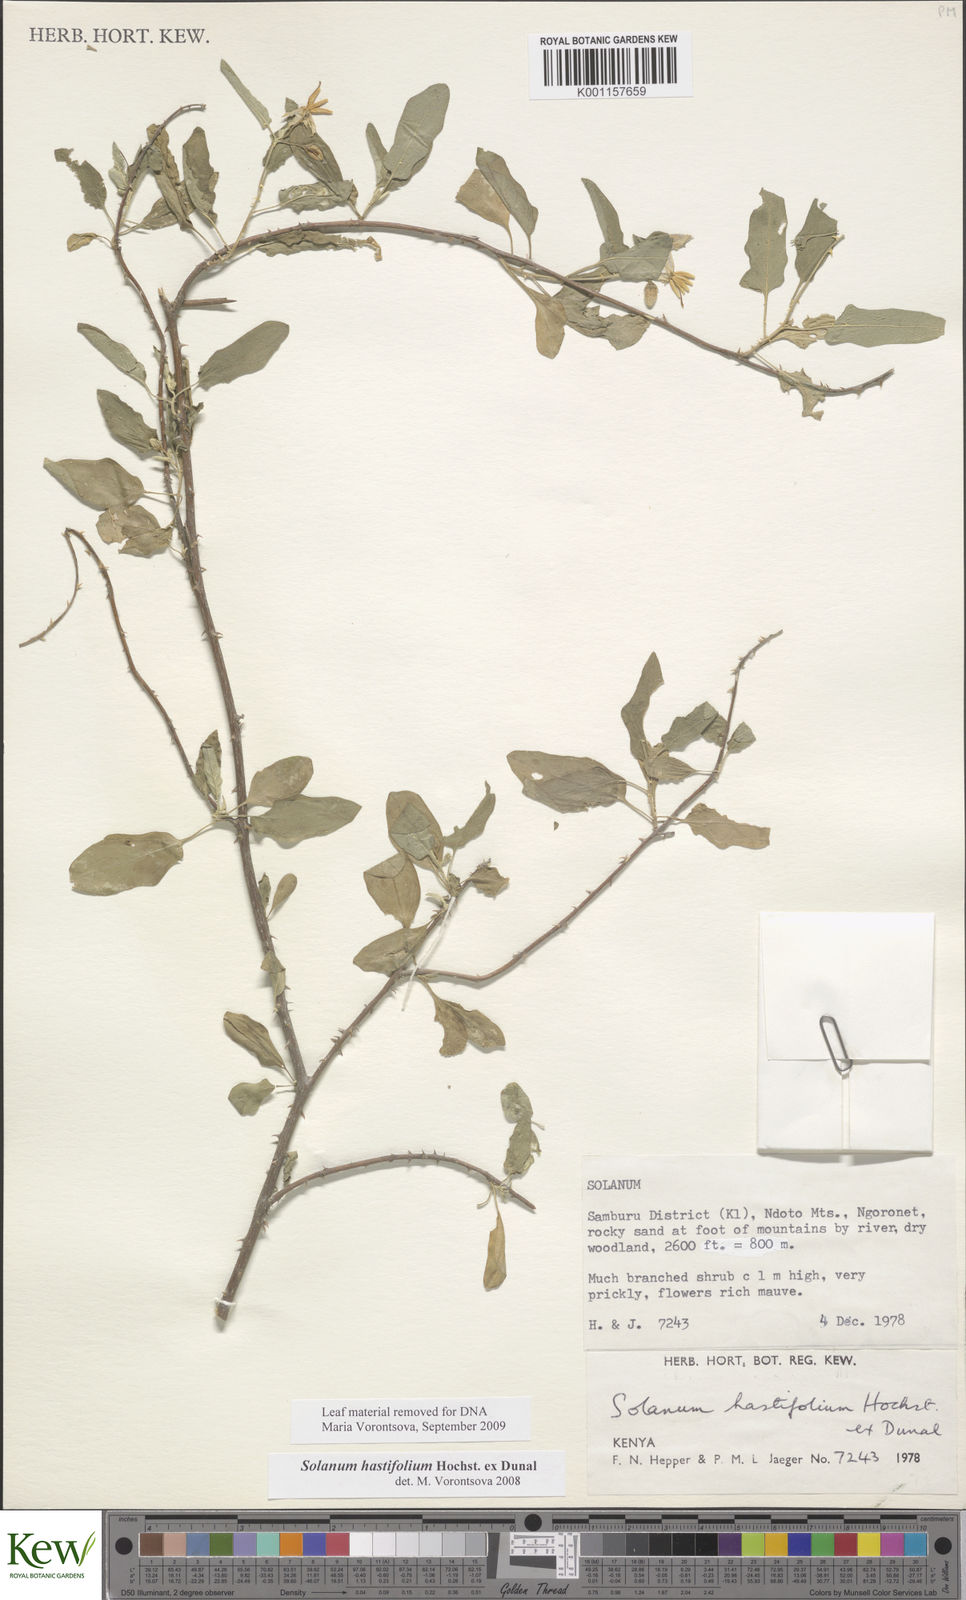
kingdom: Plantae
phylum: Tracheophyta
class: Magnoliopsida
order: Solanales
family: Solanaceae
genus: Solanum
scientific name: Solanum hastifolium
